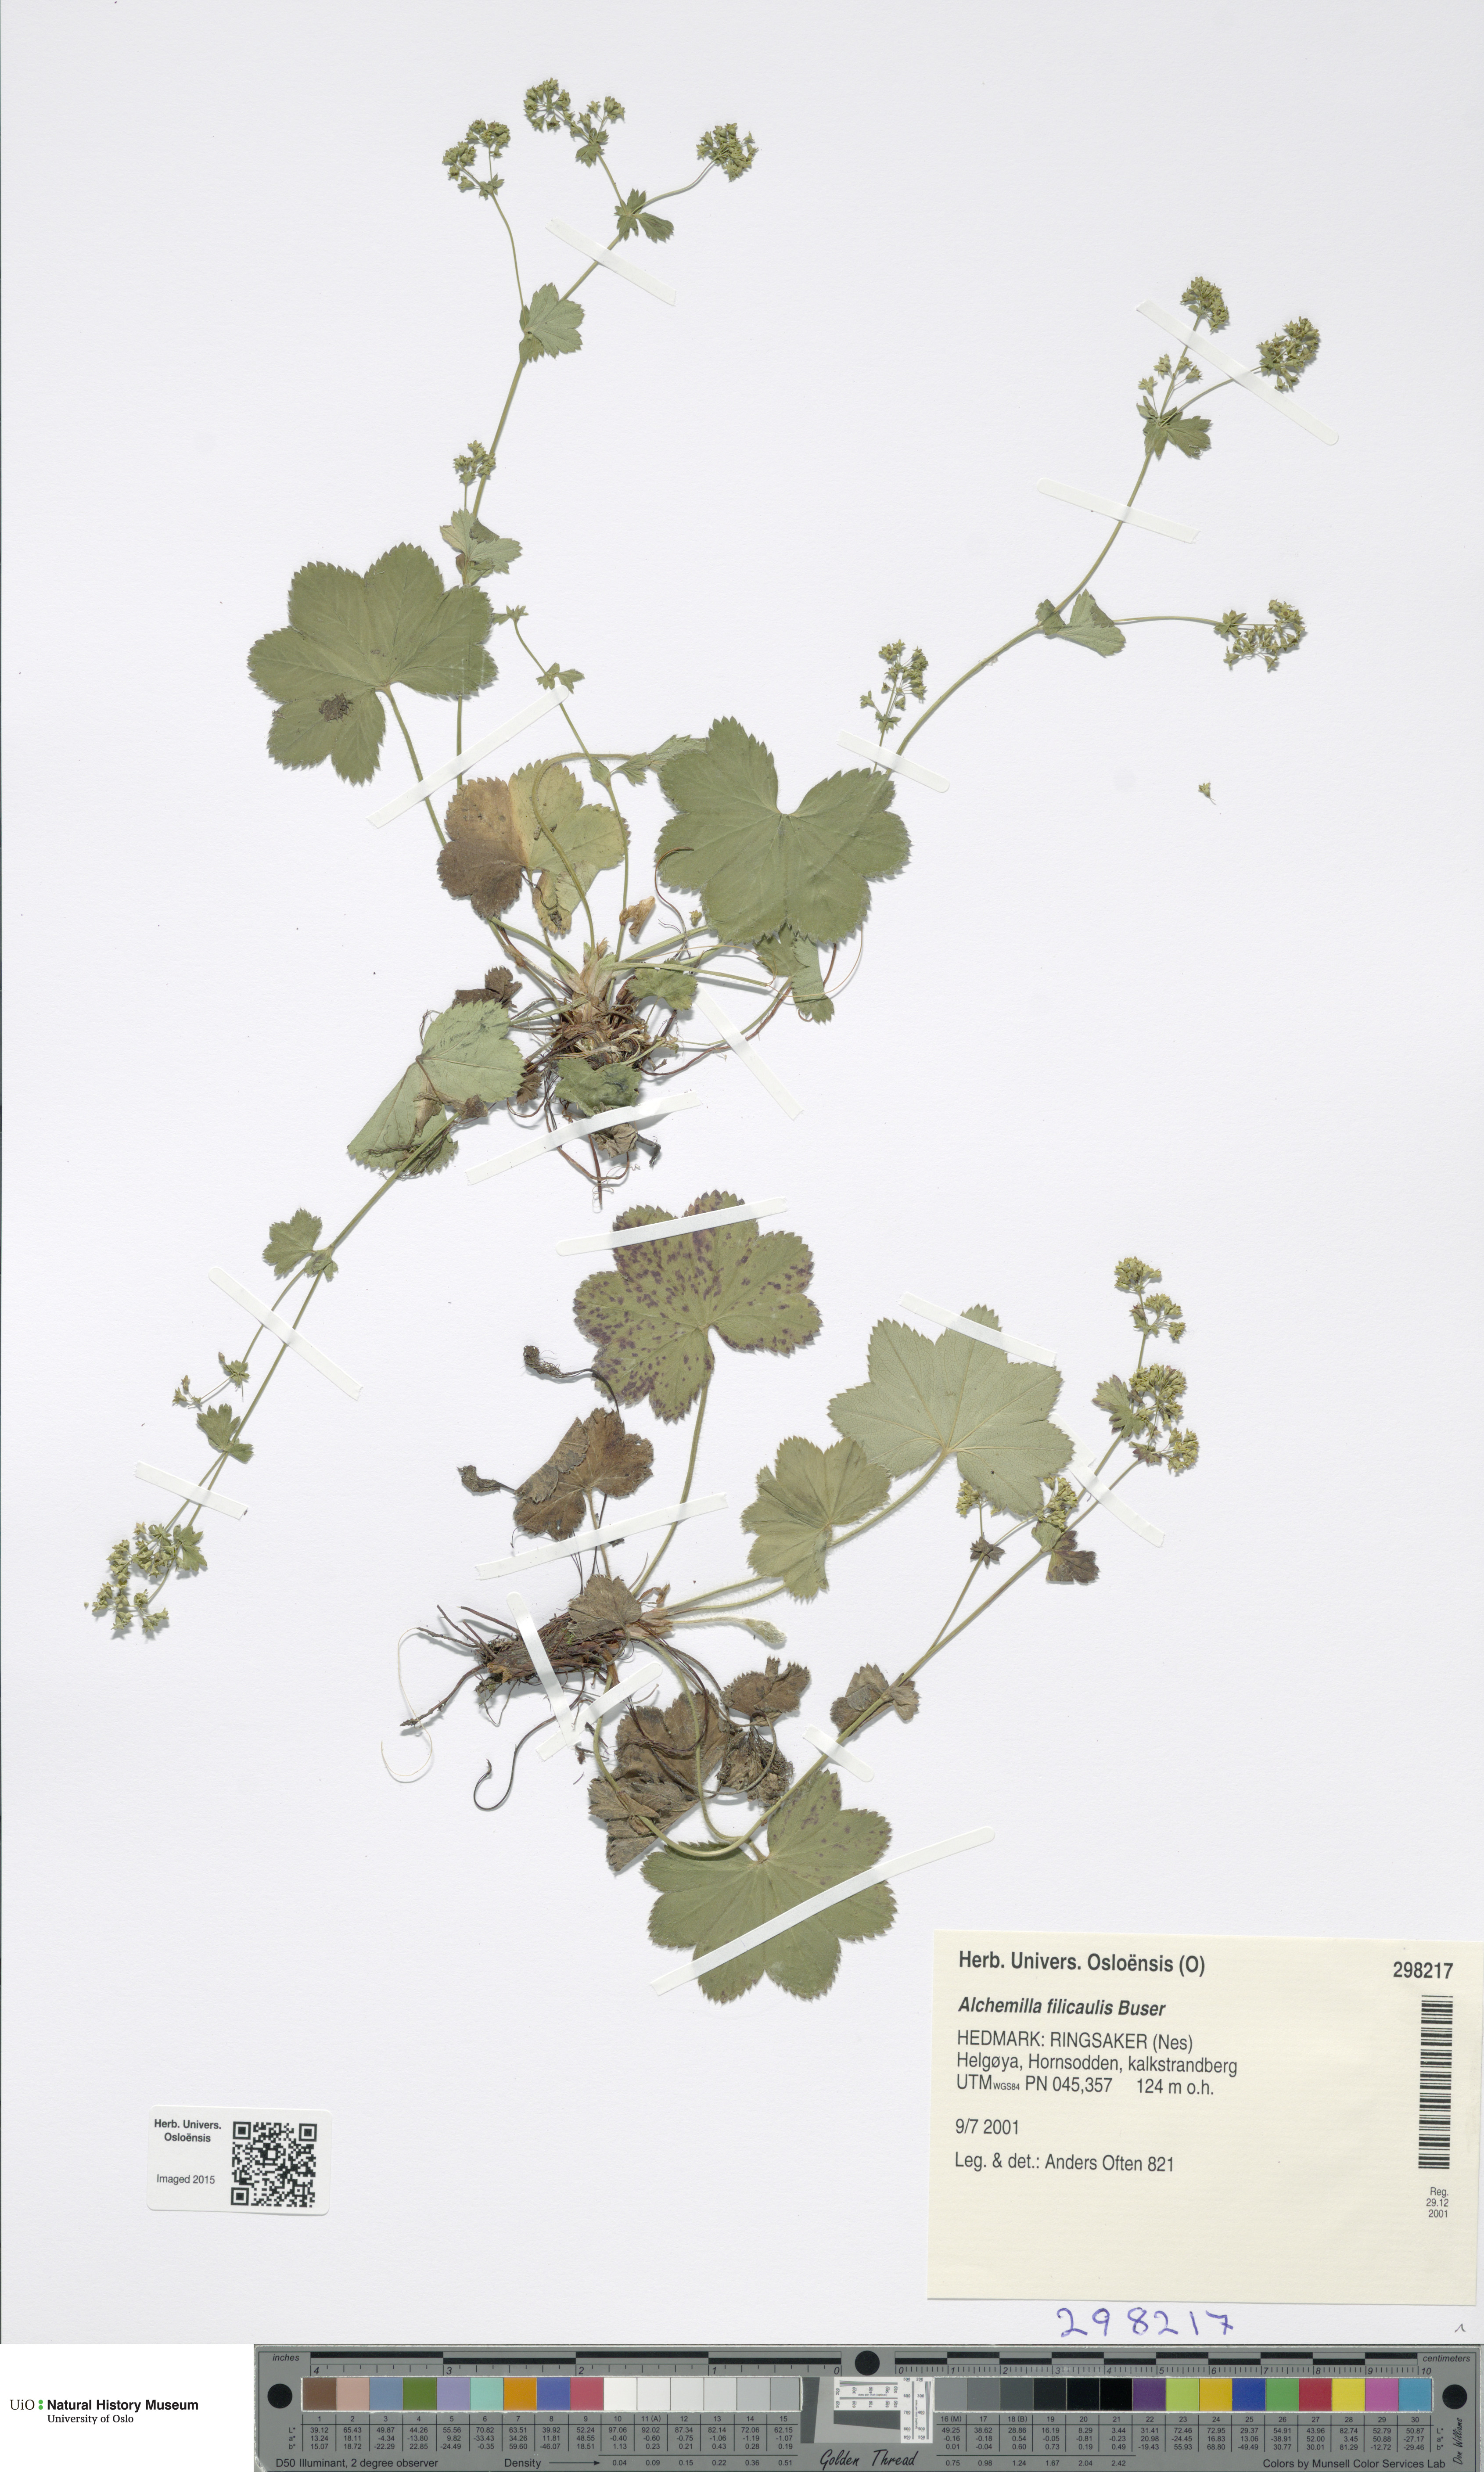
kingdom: Plantae
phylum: Tracheophyta
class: Magnoliopsida
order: Rosales
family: Rosaceae
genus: Alchemilla
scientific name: Alchemilla filicaulis
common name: Hairy lady's-mantle
